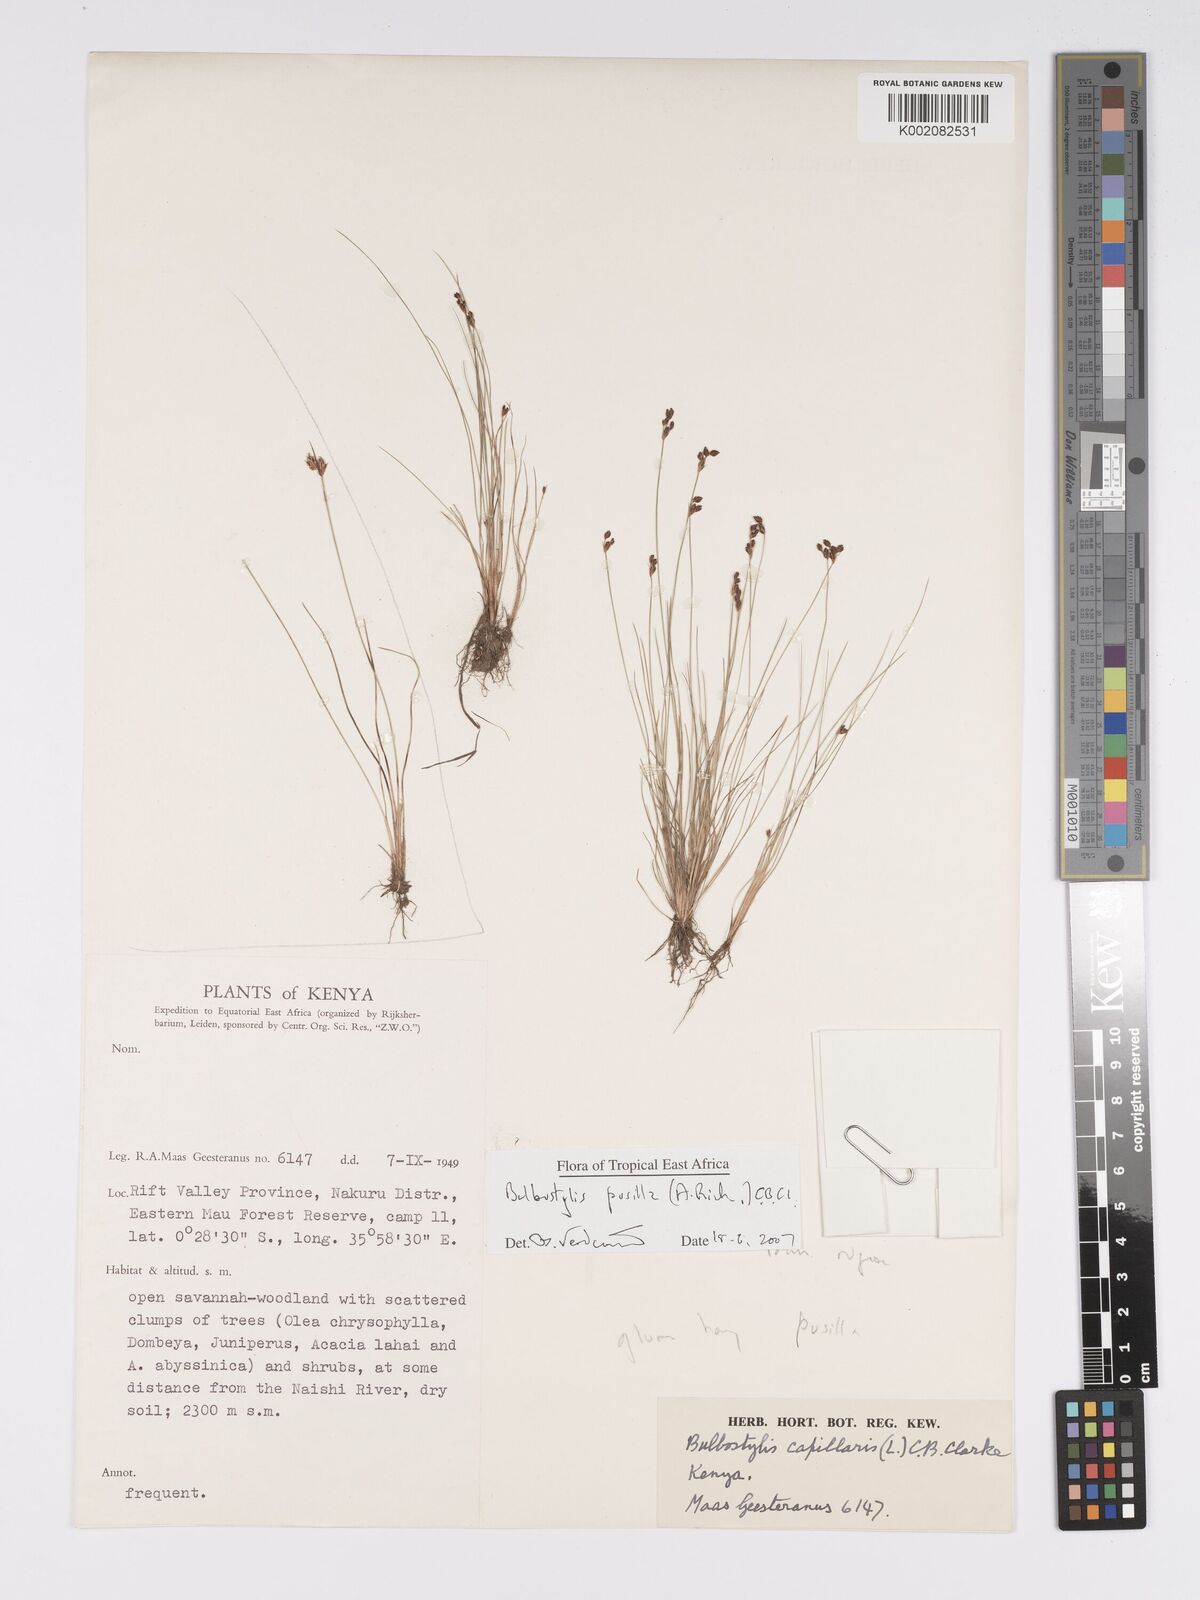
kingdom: Plantae
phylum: Tracheophyta
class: Liliopsida
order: Poales
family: Cyperaceae
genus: Bulbostylis
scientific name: Bulbostylis pusilla
